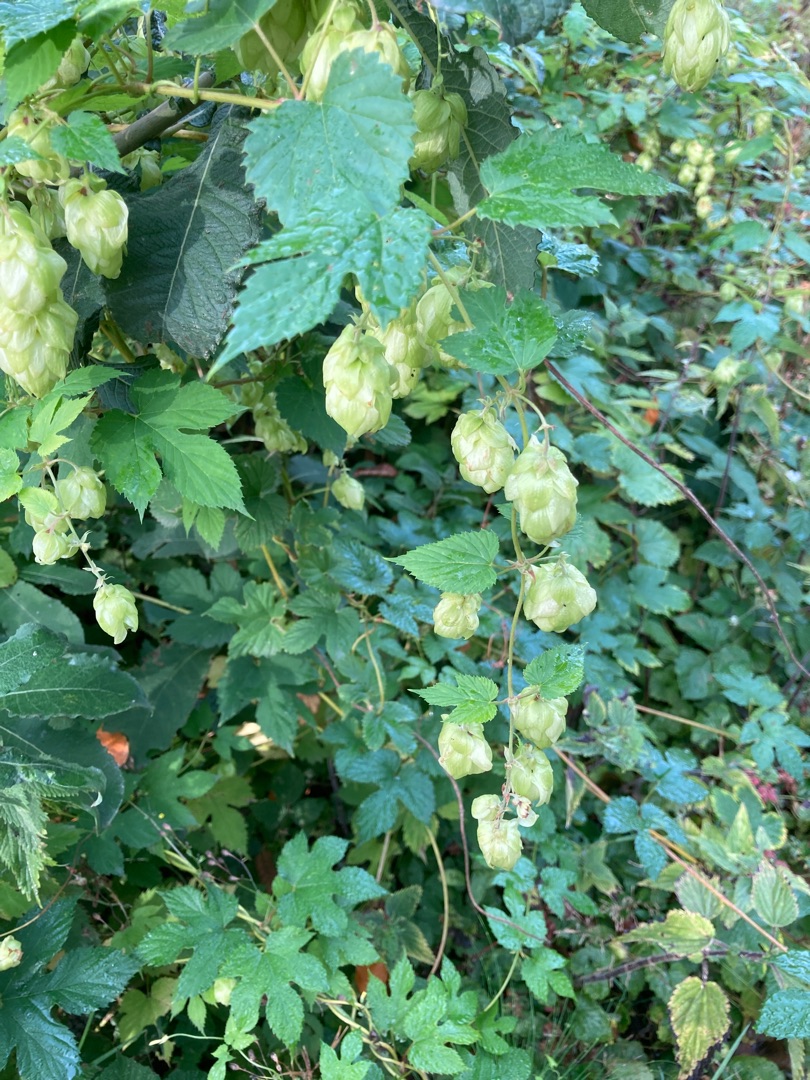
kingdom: Plantae
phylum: Tracheophyta
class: Magnoliopsida
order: Rosales
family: Cannabaceae
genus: Humulus
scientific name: Humulus lupulus
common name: Humle
